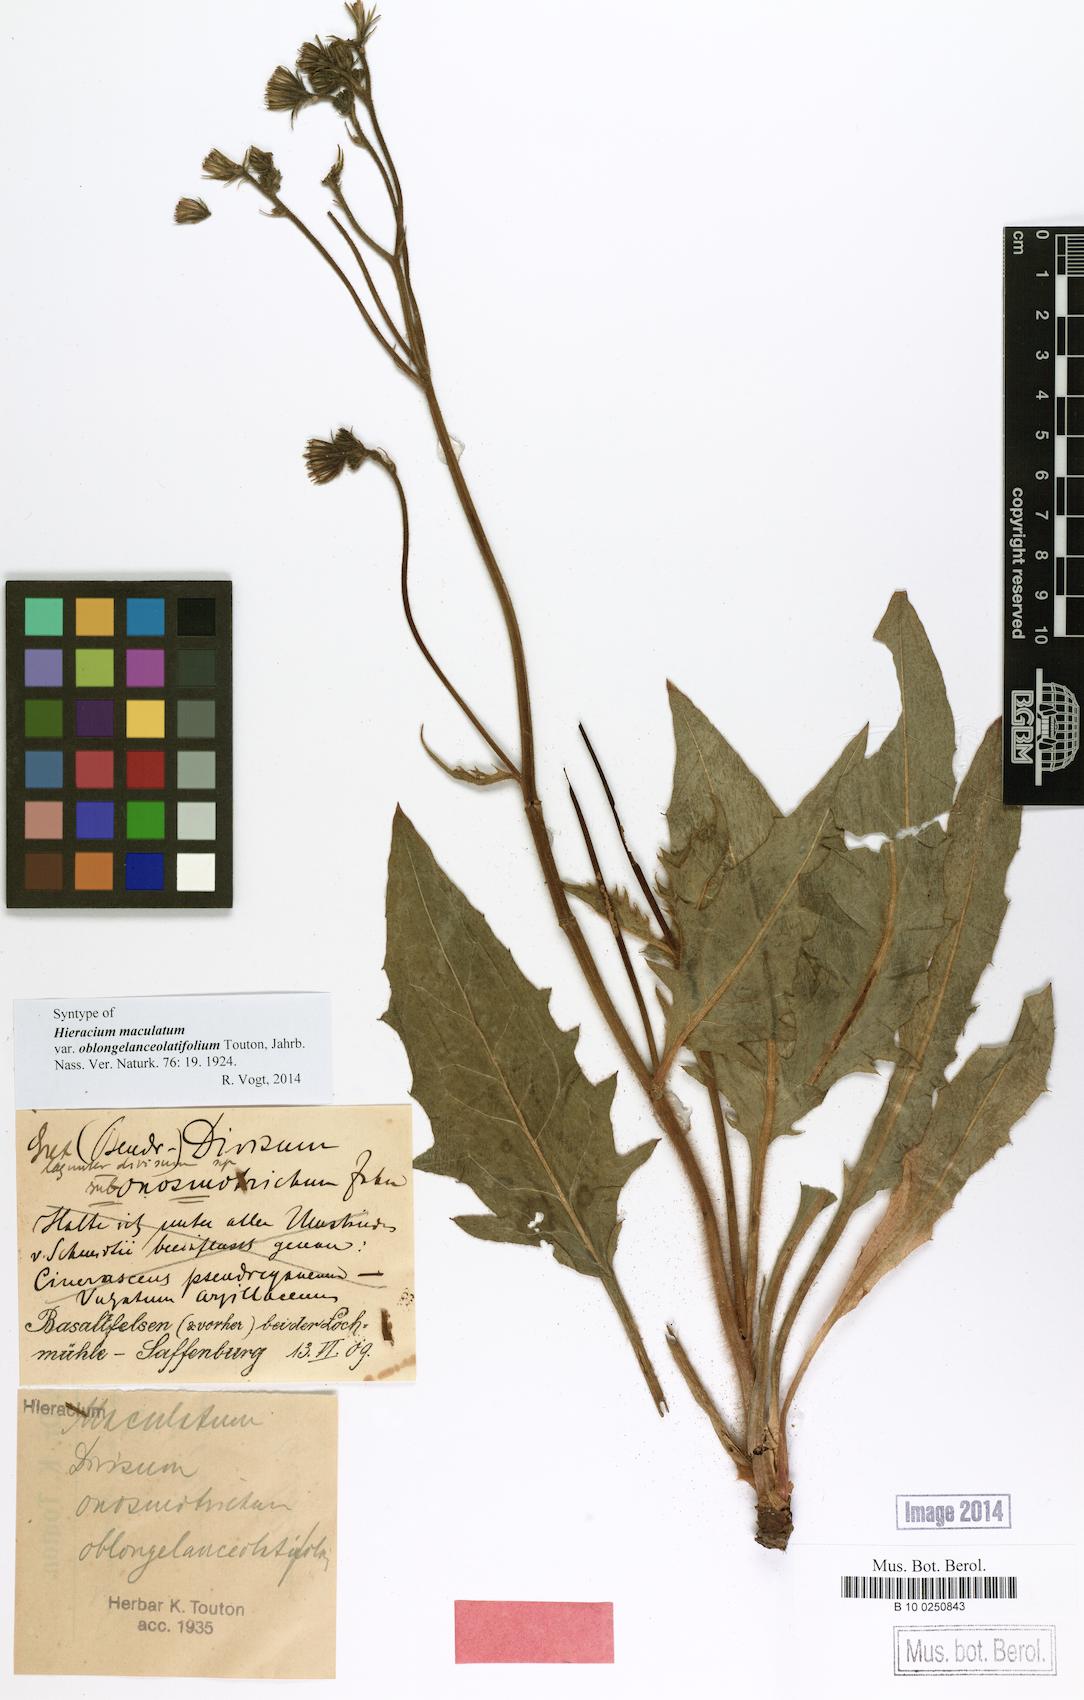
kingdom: Plantae
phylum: Tracheophyta
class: Magnoliopsida
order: Asterales
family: Asteraceae
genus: Hieracium
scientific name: Hieracium maculatum
